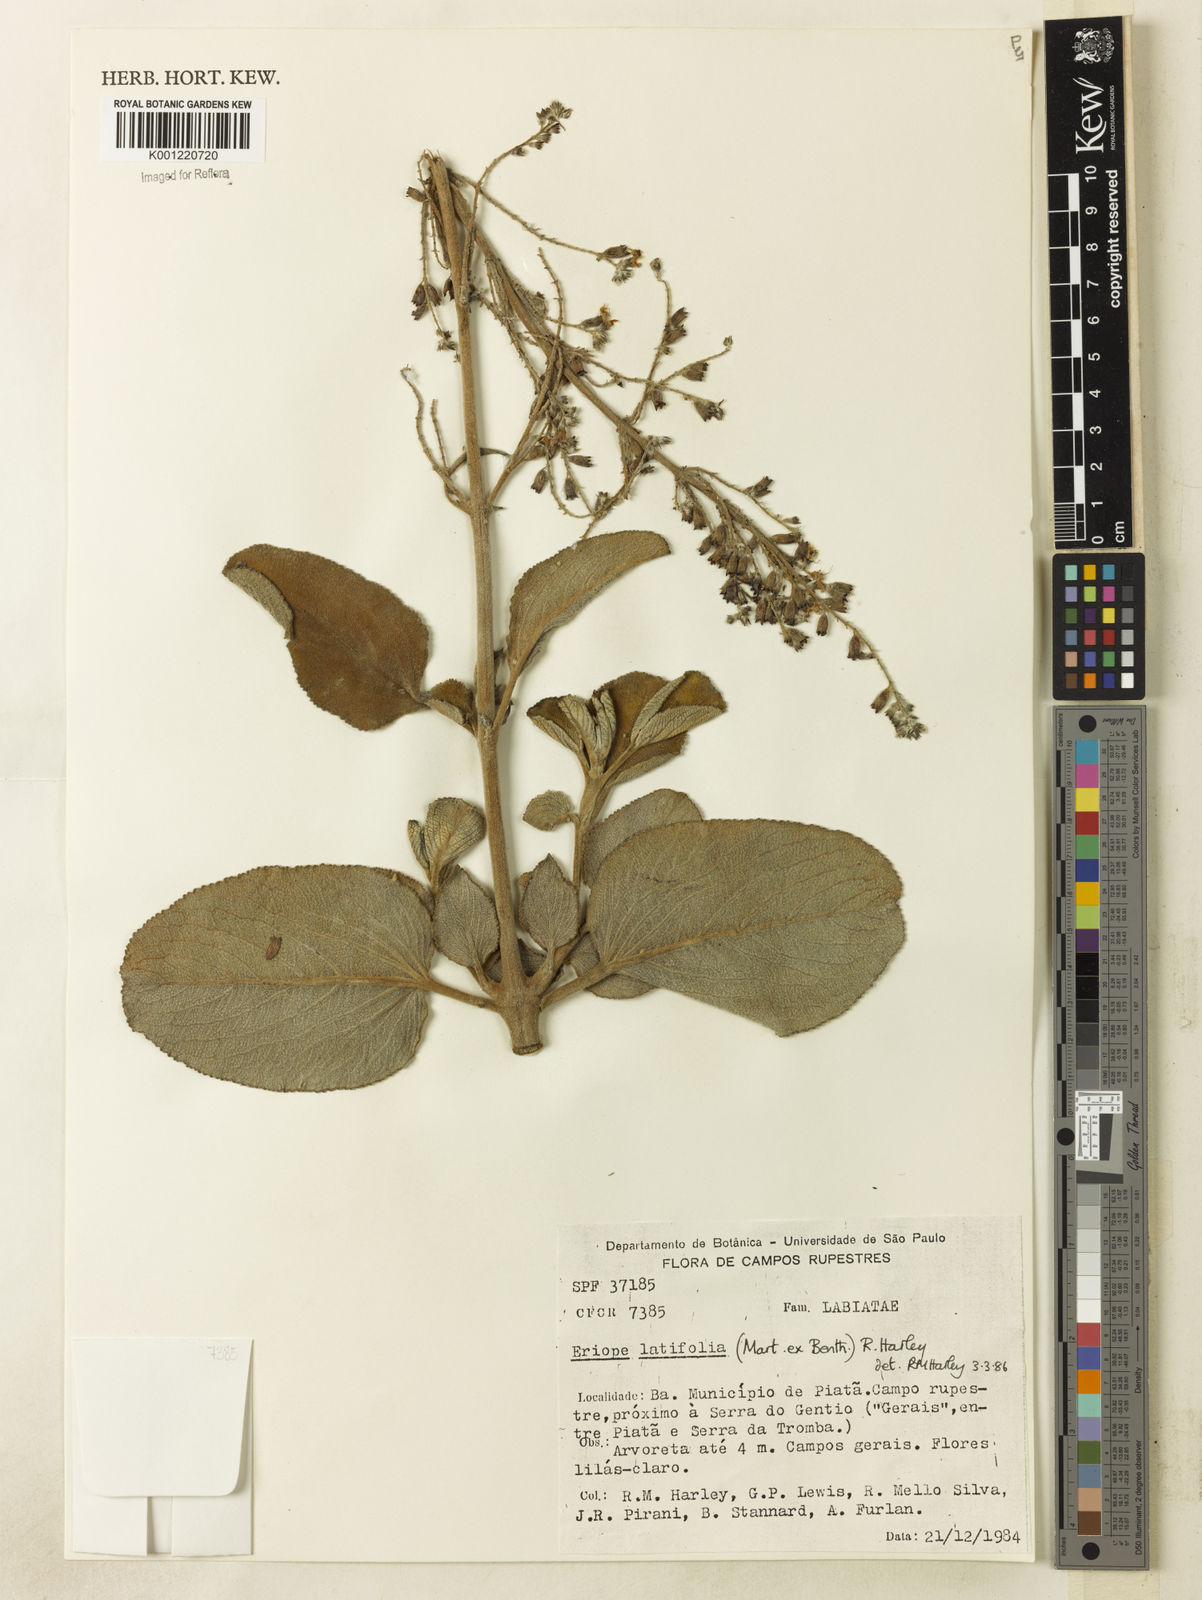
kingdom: Plantae
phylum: Tracheophyta
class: Magnoliopsida
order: Lamiales
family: Lamiaceae
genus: Eriope
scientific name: Eriope latifolia
